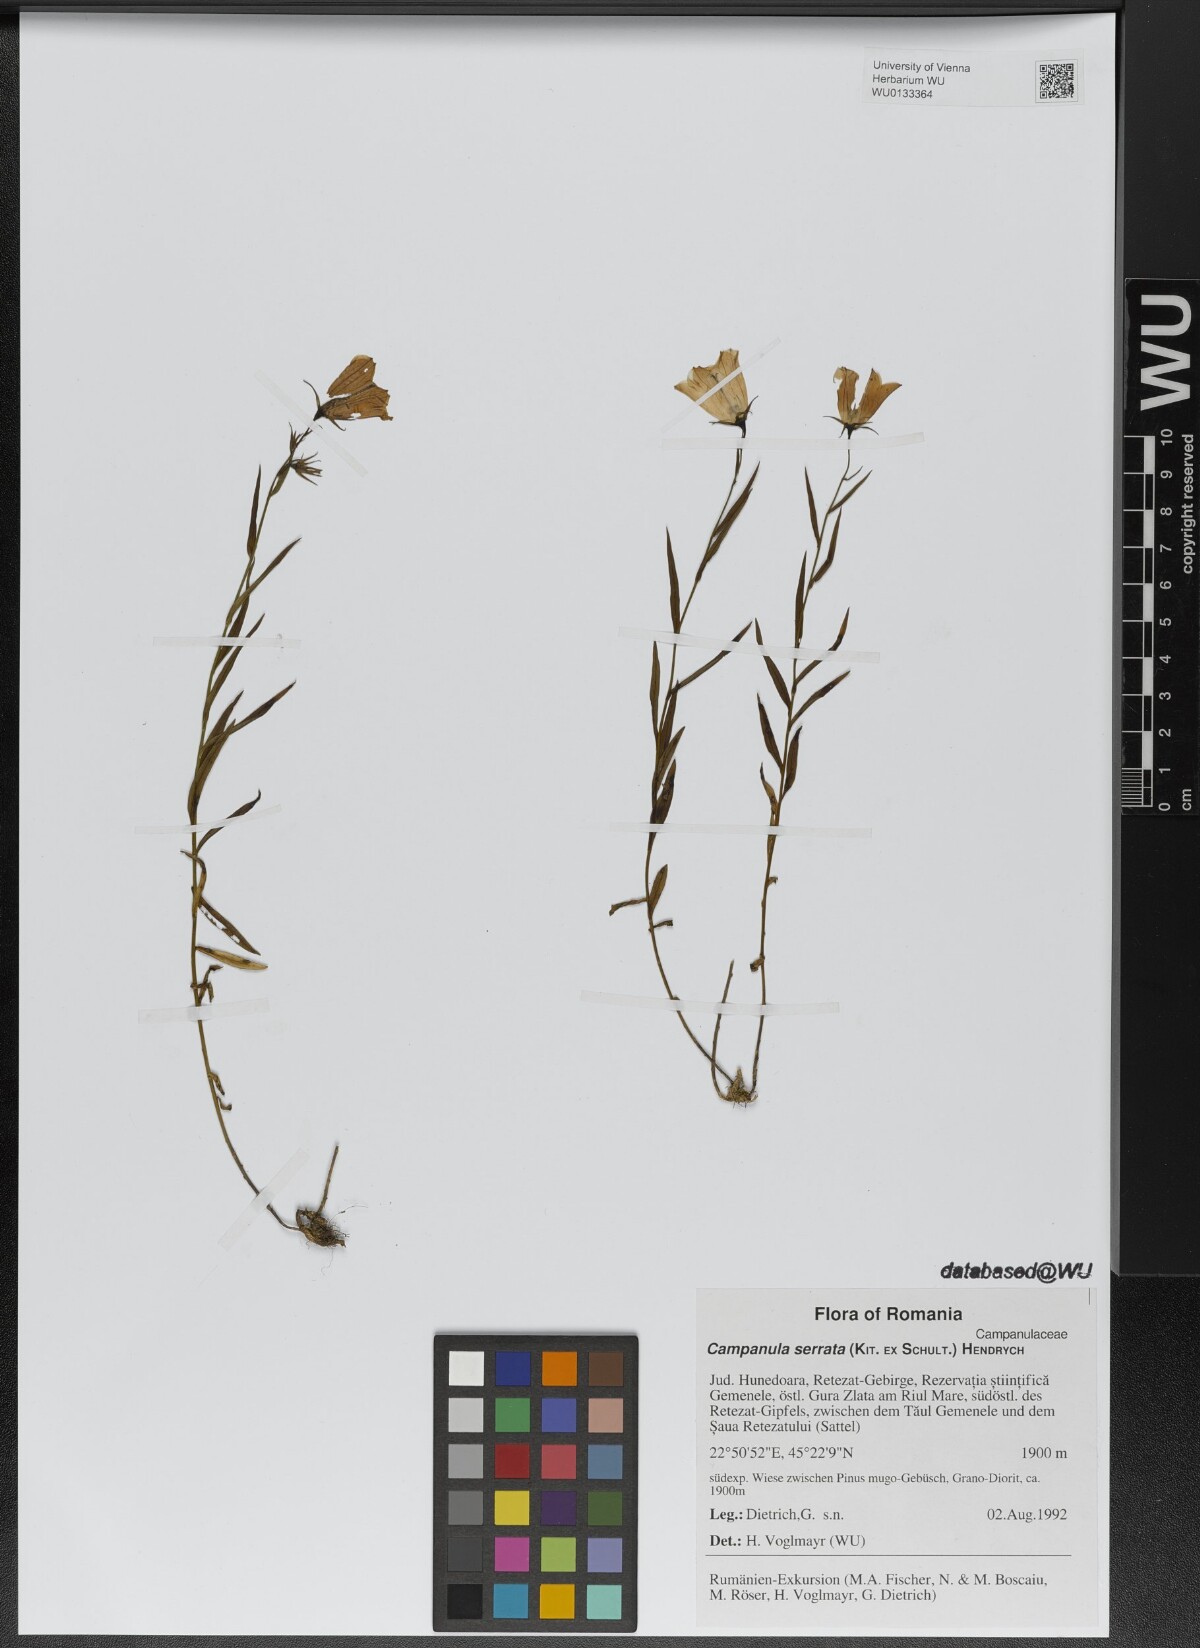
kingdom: Plantae
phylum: Tracheophyta
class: Magnoliopsida
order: Asterales
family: Campanulaceae
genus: Campanula
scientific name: Campanula serrata
